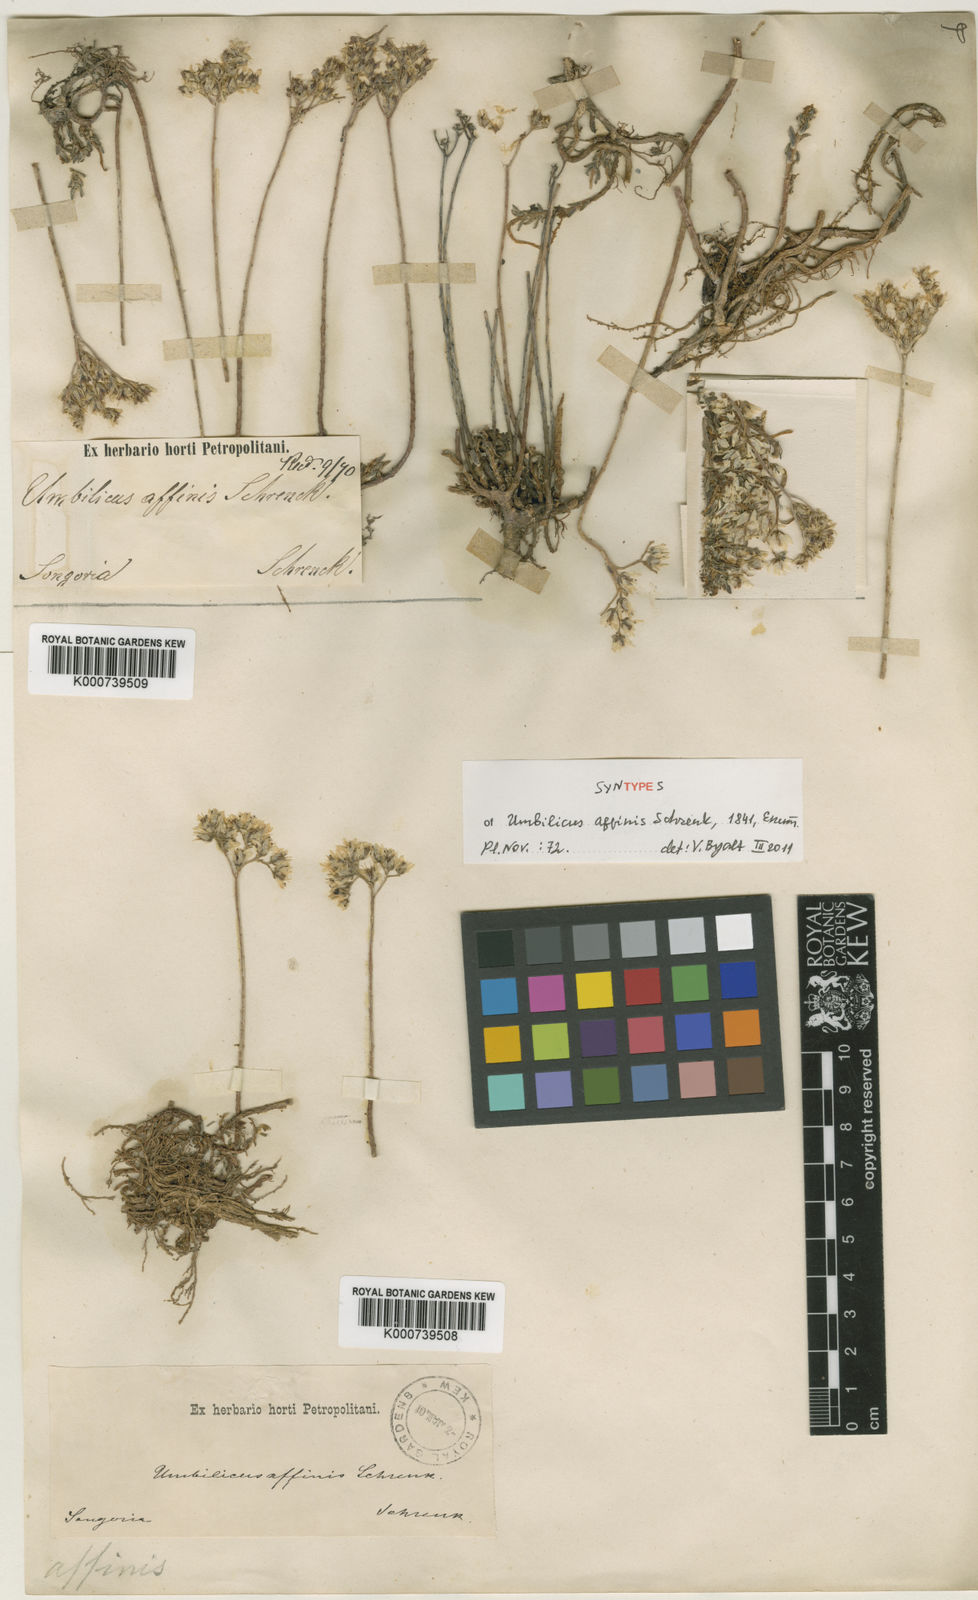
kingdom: Plantae
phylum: Tracheophyta
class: Magnoliopsida
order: Saxifragales
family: Crassulaceae
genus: Umbilicus
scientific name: Umbilicus affinis
